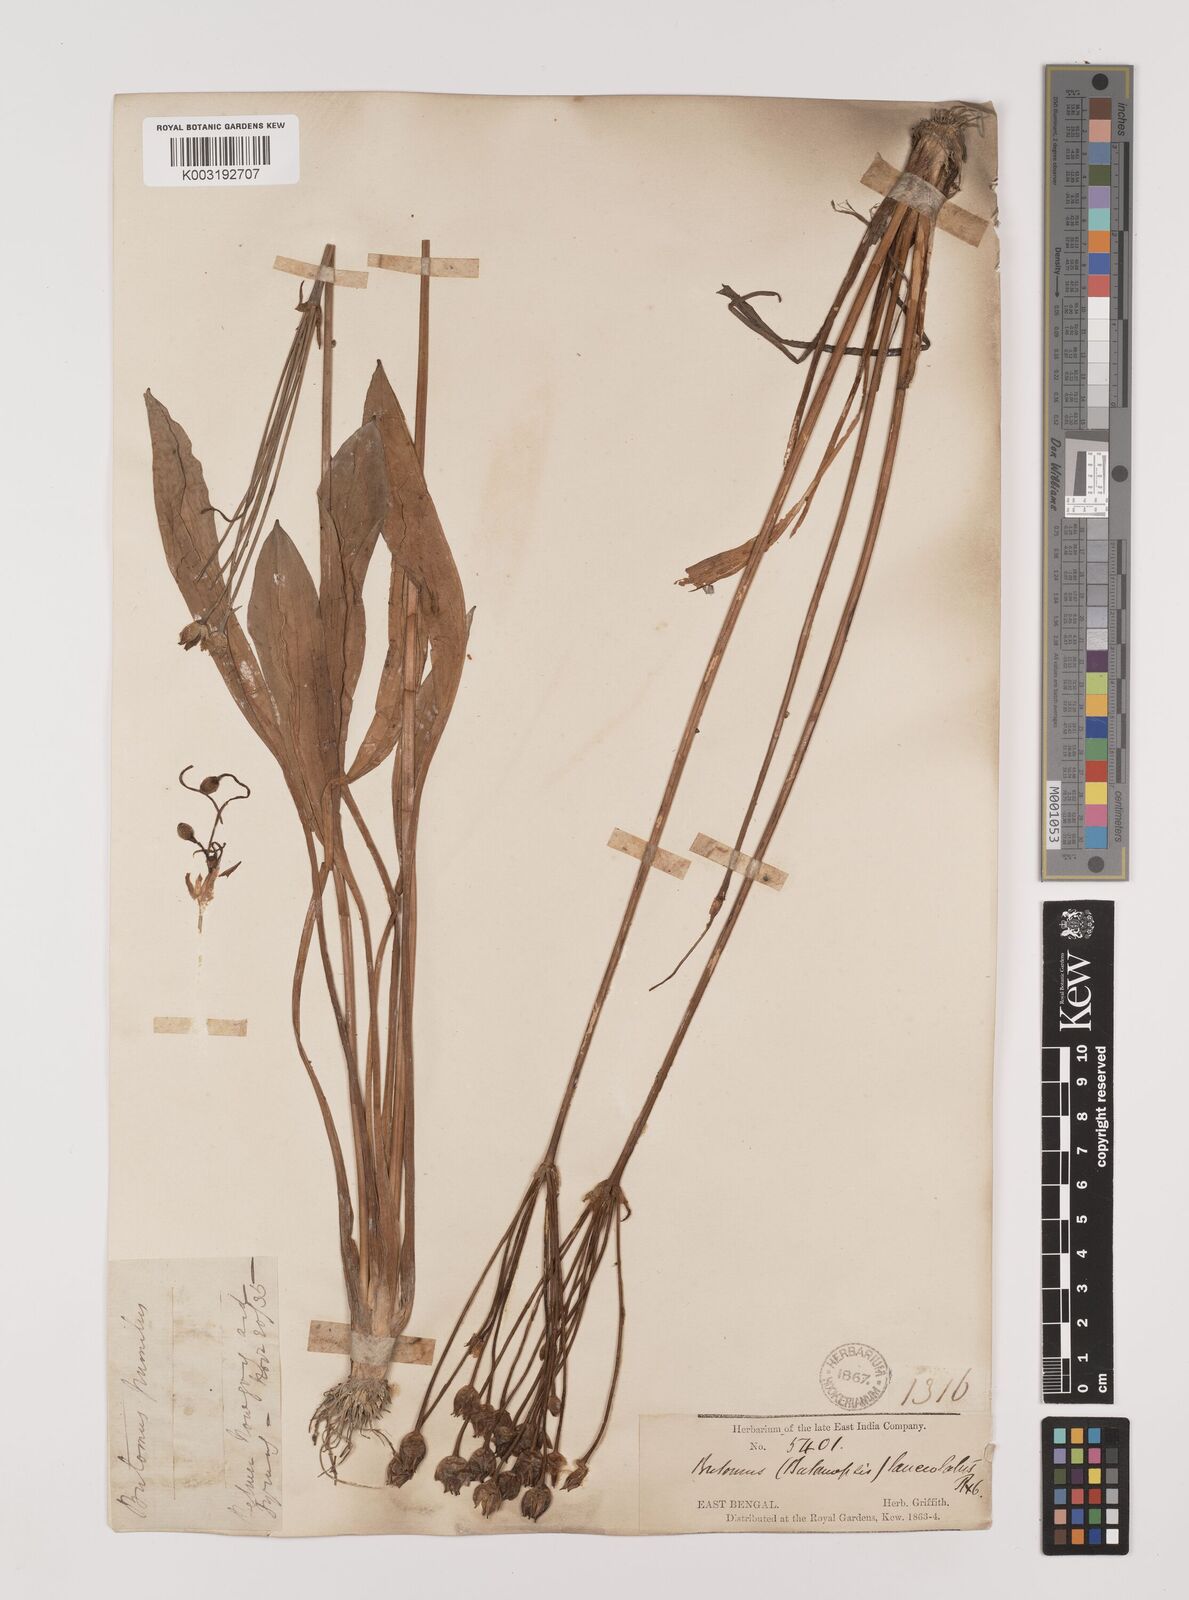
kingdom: Plantae
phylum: Tracheophyta
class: Liliopsida
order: Alismatales
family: Alismataceae
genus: Butomopsis
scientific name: Butomopsis latifolia
